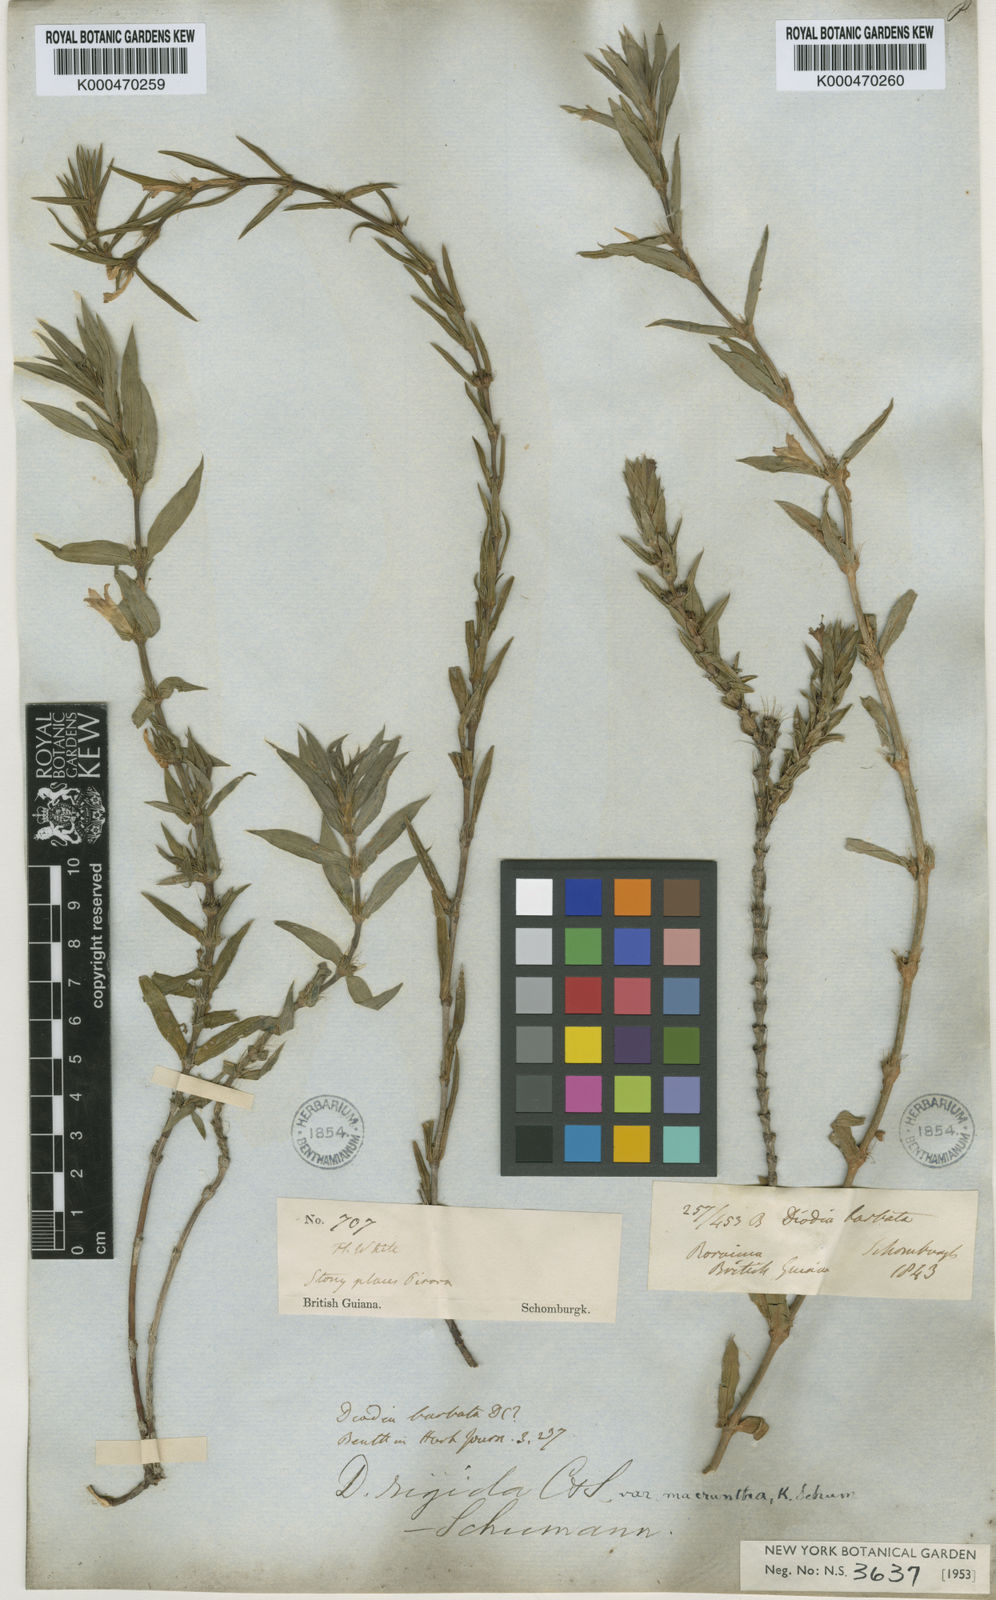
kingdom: Plantae
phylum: Tracheophyta
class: Magnoliopsida
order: Gentianales
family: Rubiaceae
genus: Hexasepalum
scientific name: Hexasepalum apiculatum
